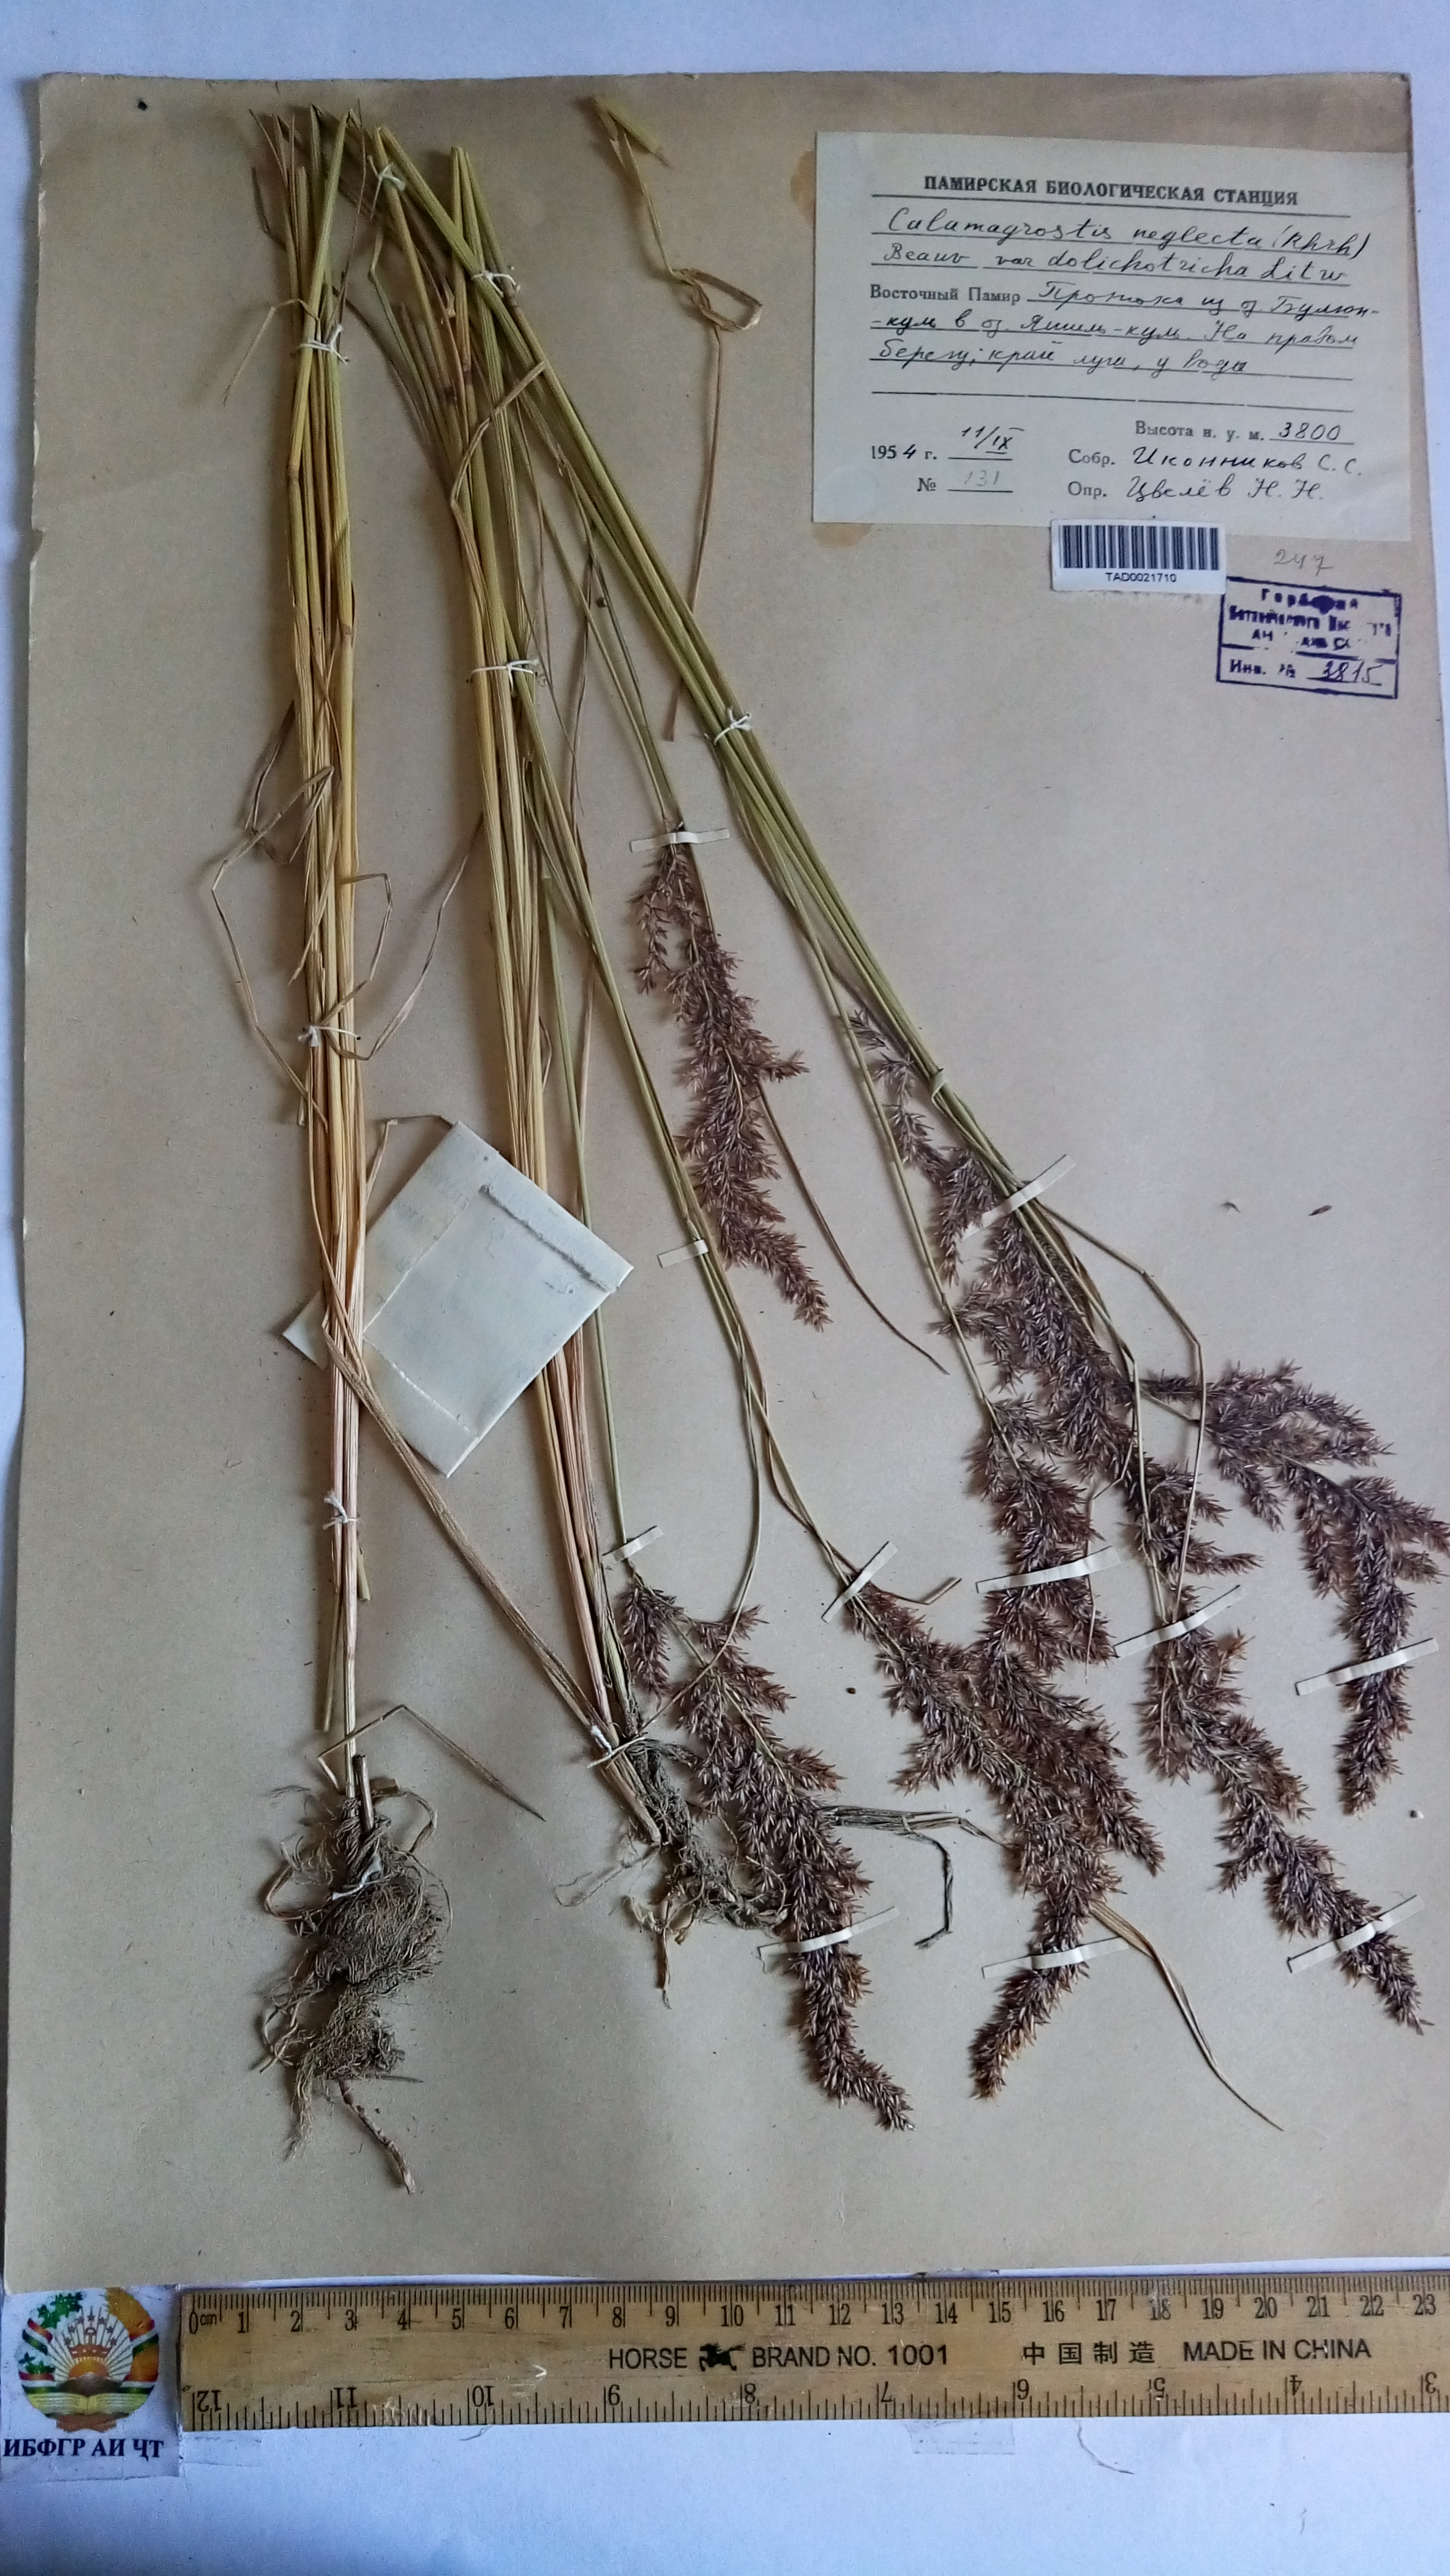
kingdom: Plantae
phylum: Tracheophyta
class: Liliopsida
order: Poales
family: Poaceae
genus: Achnatherum
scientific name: Achnatherum calamagrostis
